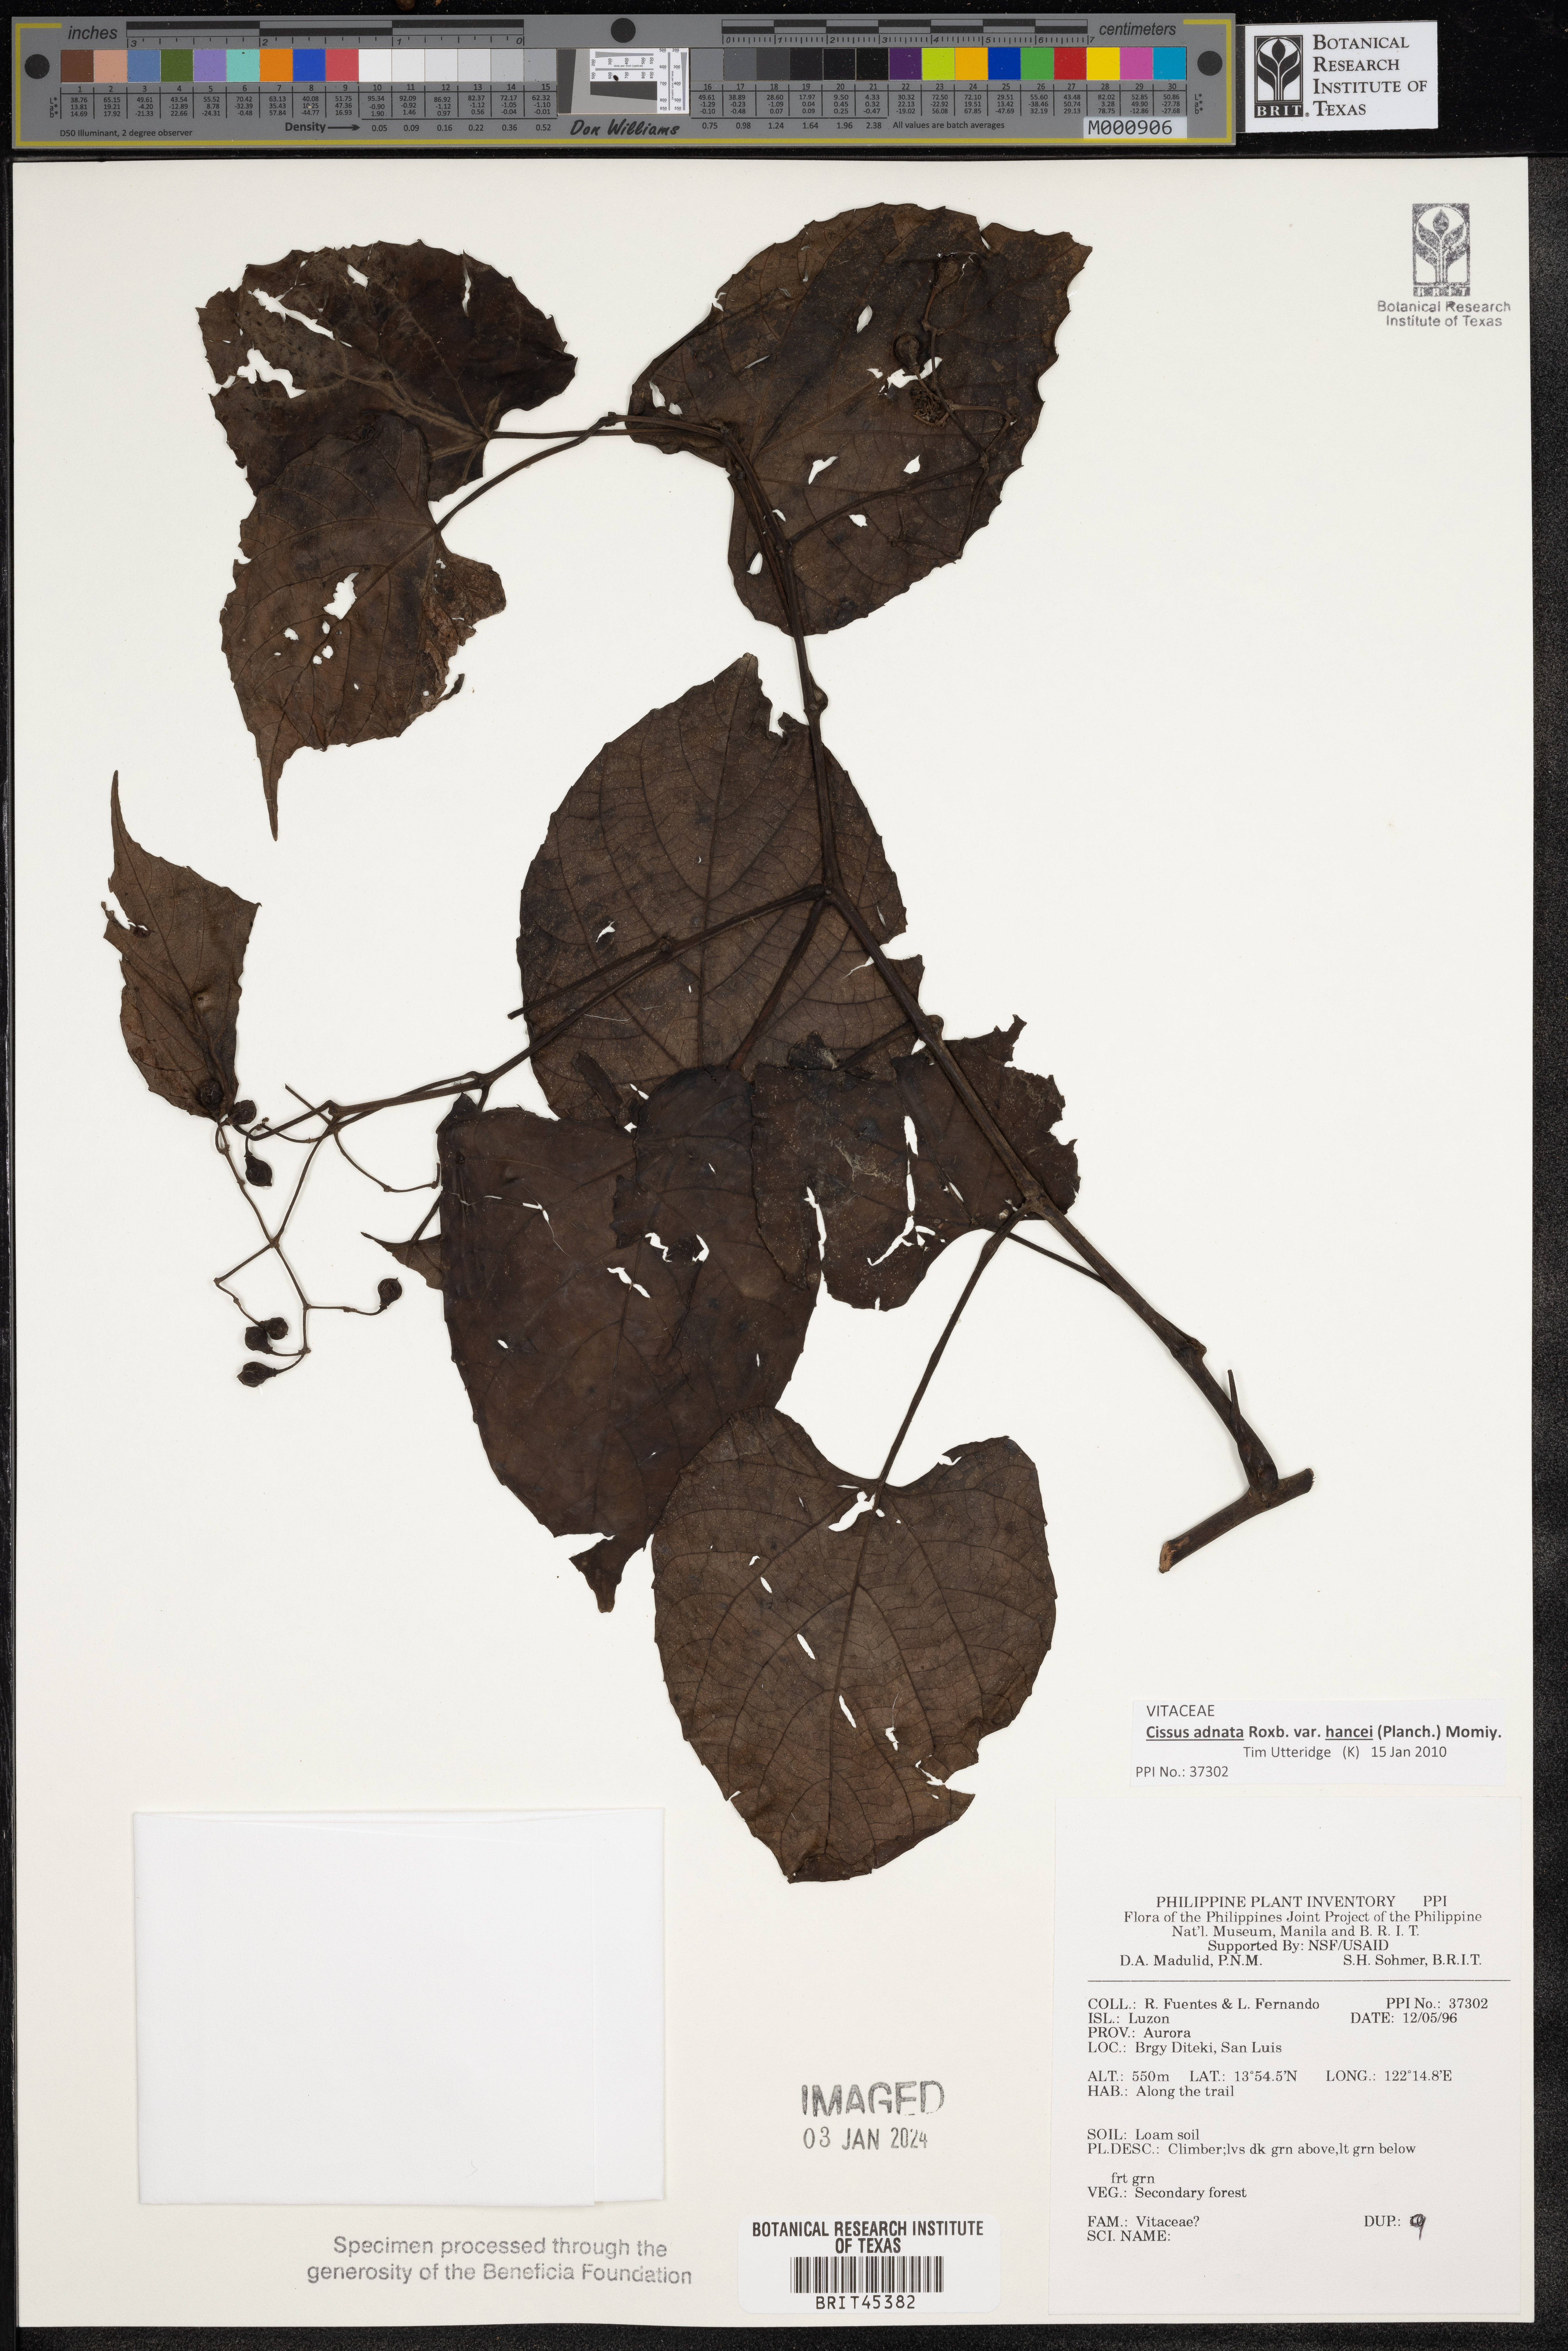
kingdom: Plantae
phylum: Tracheophyta
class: Magnoliopsida
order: Vitales
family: Vitaceae
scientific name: Vitaceae
